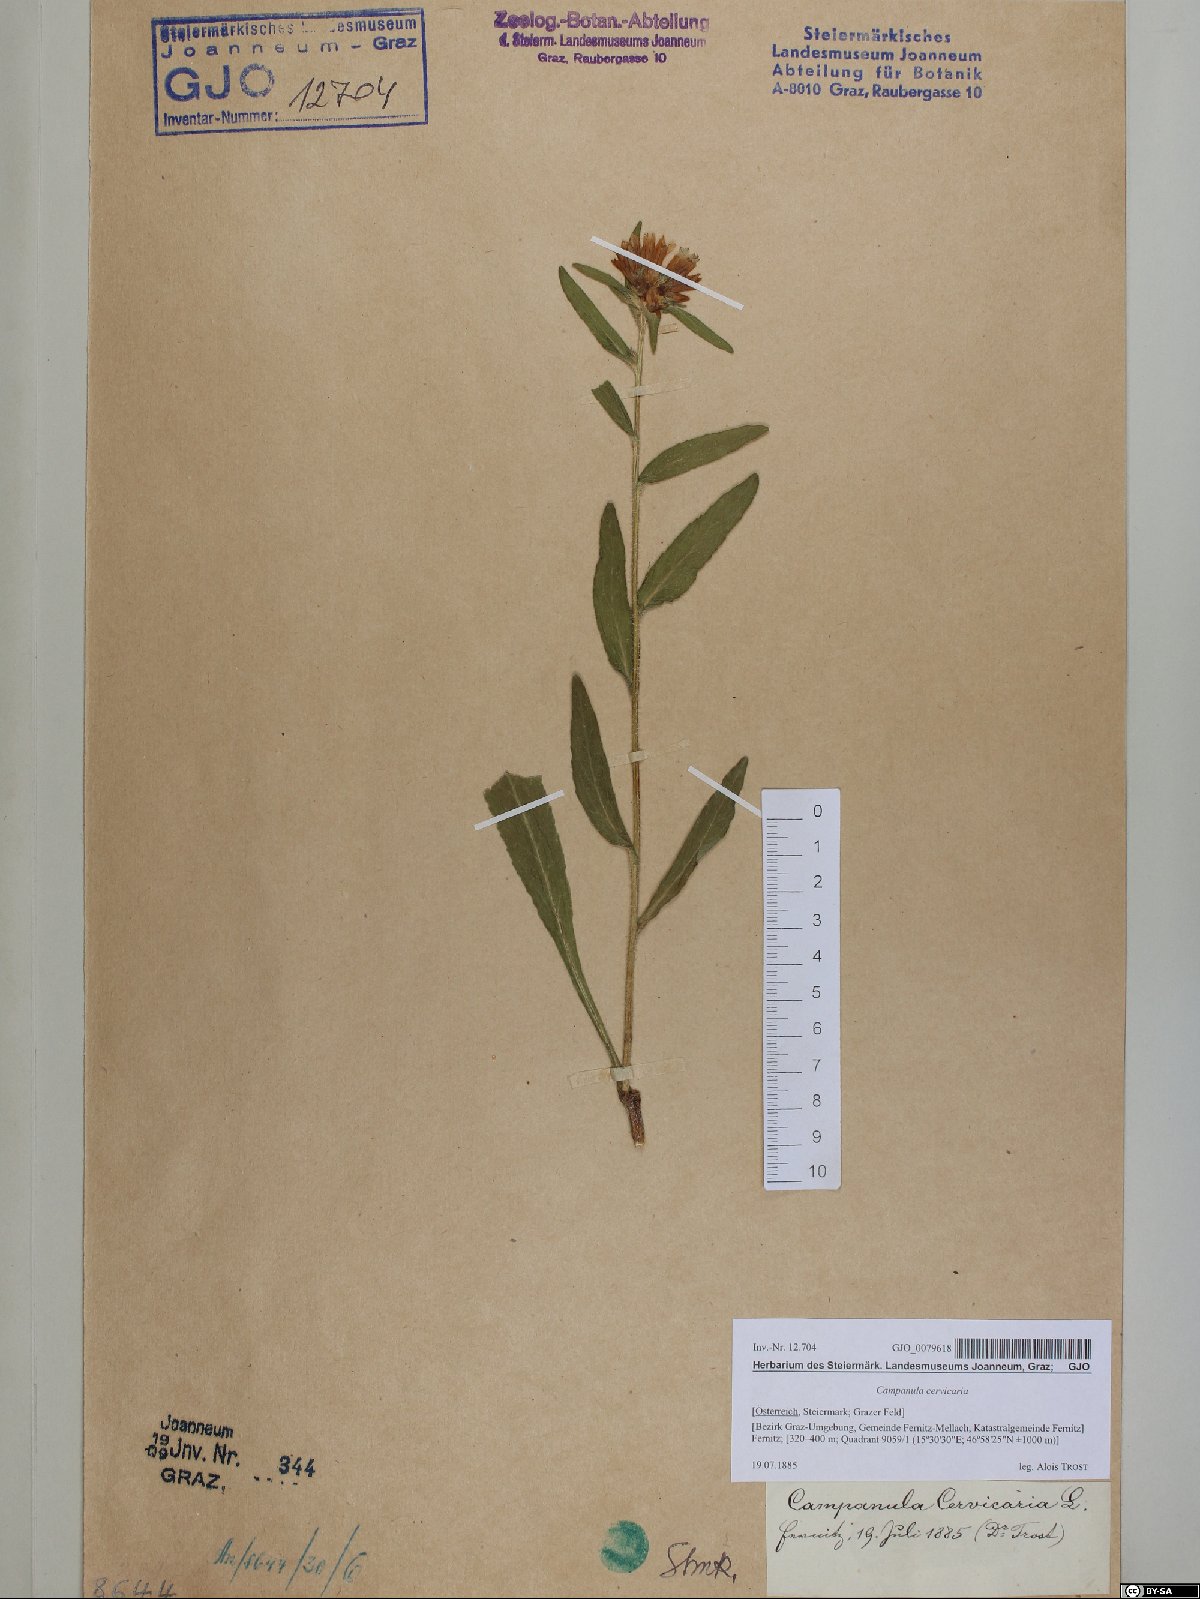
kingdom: Plantae
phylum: Tracheophyta
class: Magnoliopsida
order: Asterales
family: Campanulaceae
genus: Campanula
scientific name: Campanula cervicaria
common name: Bristly bellflower
